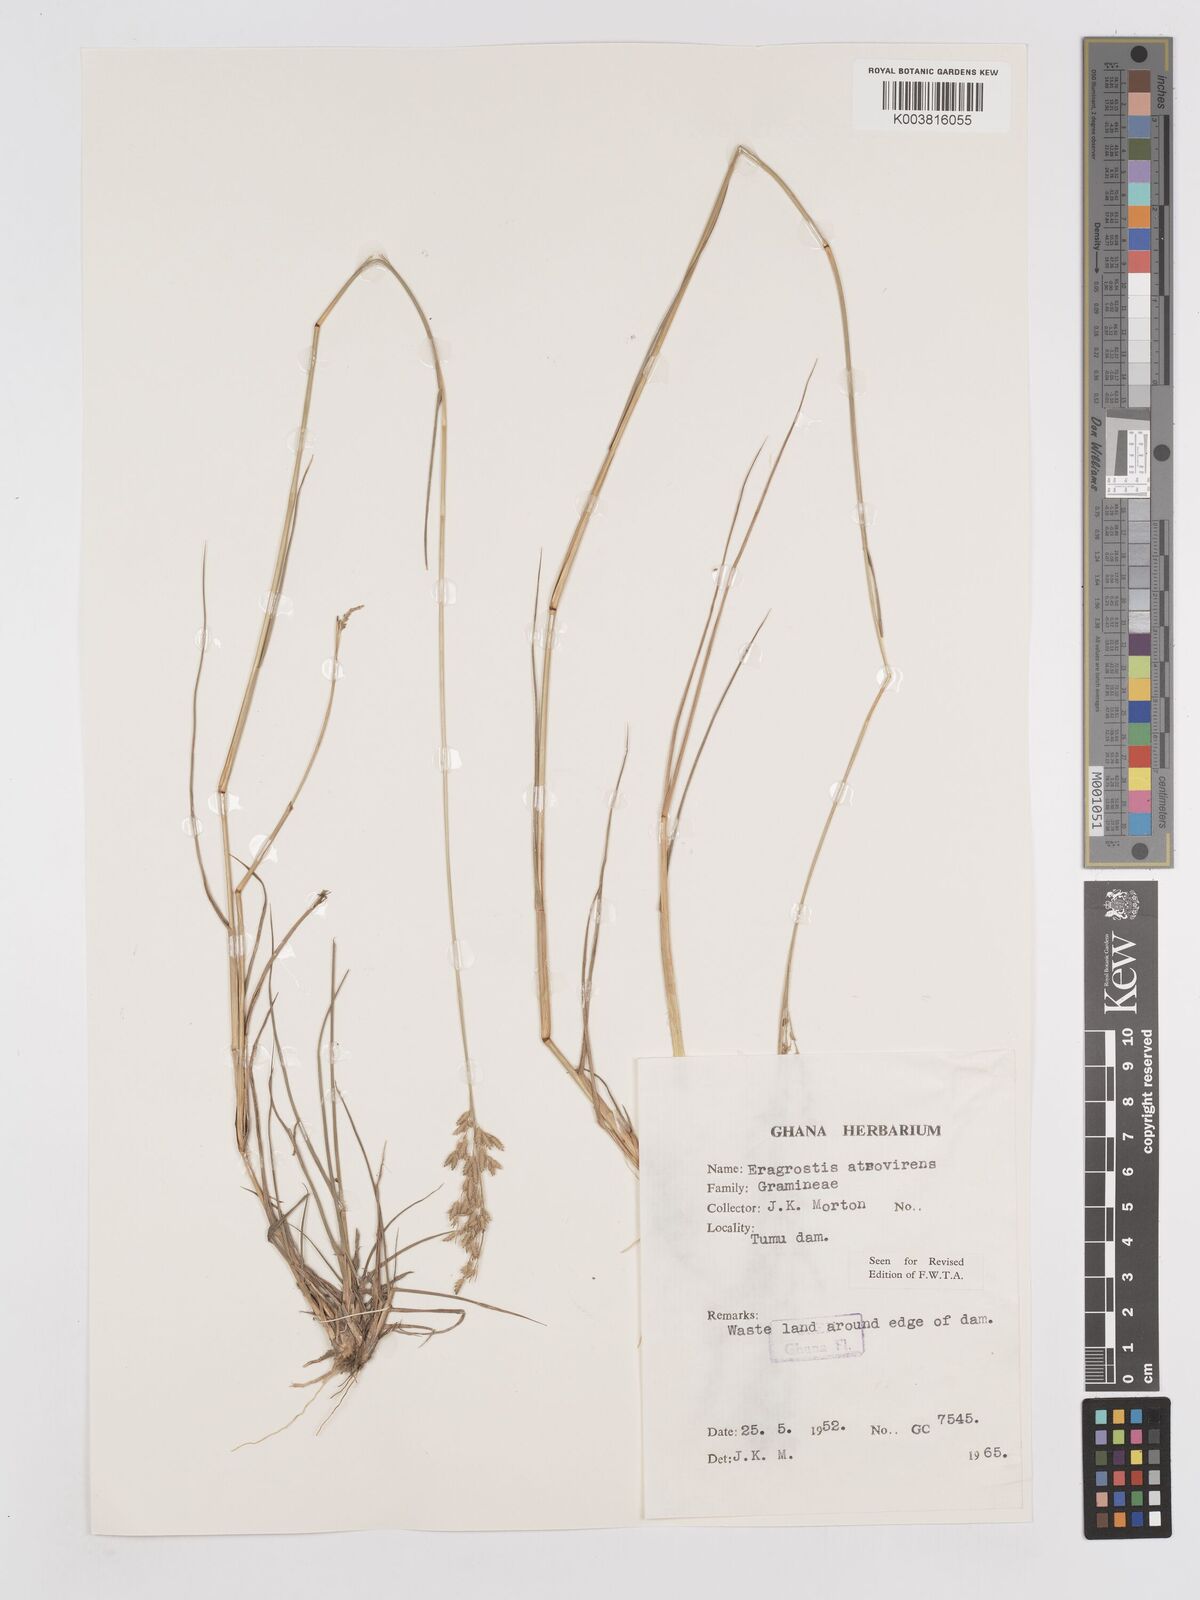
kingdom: Plantae
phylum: Tracheophyta
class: Liliopsida
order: Poales
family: Poaceae
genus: Eragrostis
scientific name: Eragrostis atrovirens
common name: Thalia lovegrass
